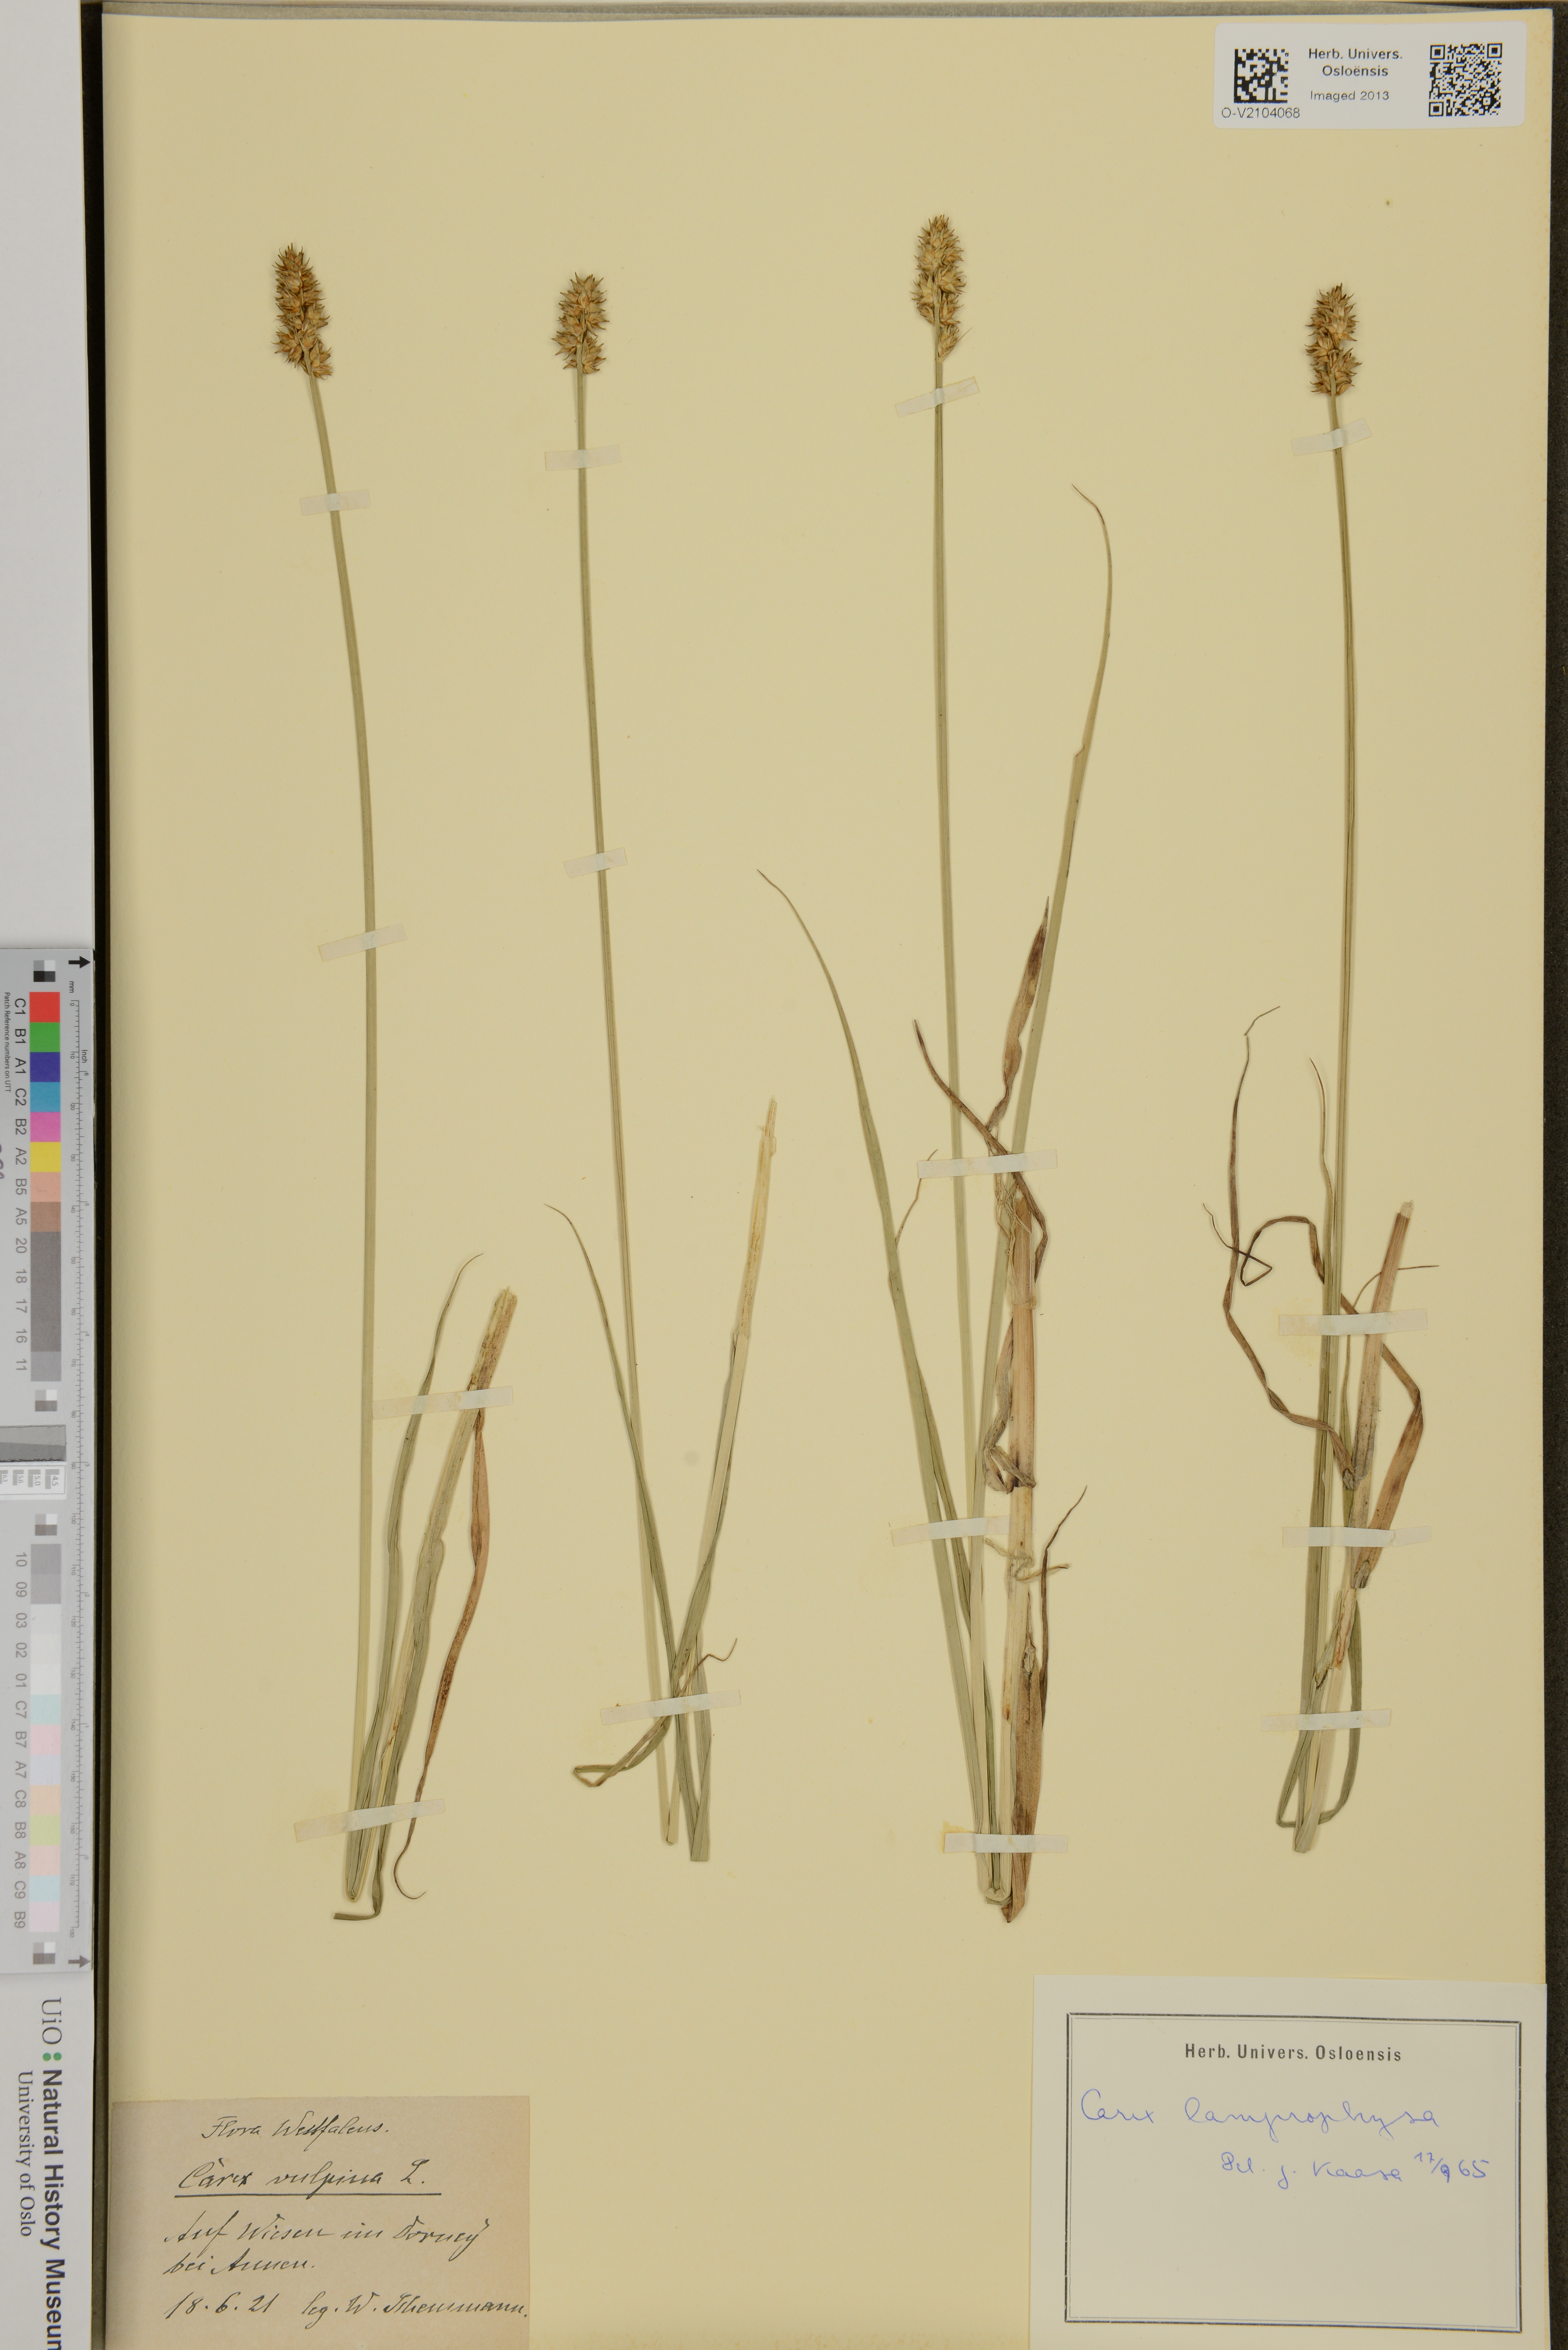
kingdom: Plantae
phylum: Tracheophyta
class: Liliopsida
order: Poales
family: Cyperaceae
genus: Carex
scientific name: Carex otrubae
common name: False fox-sedge
